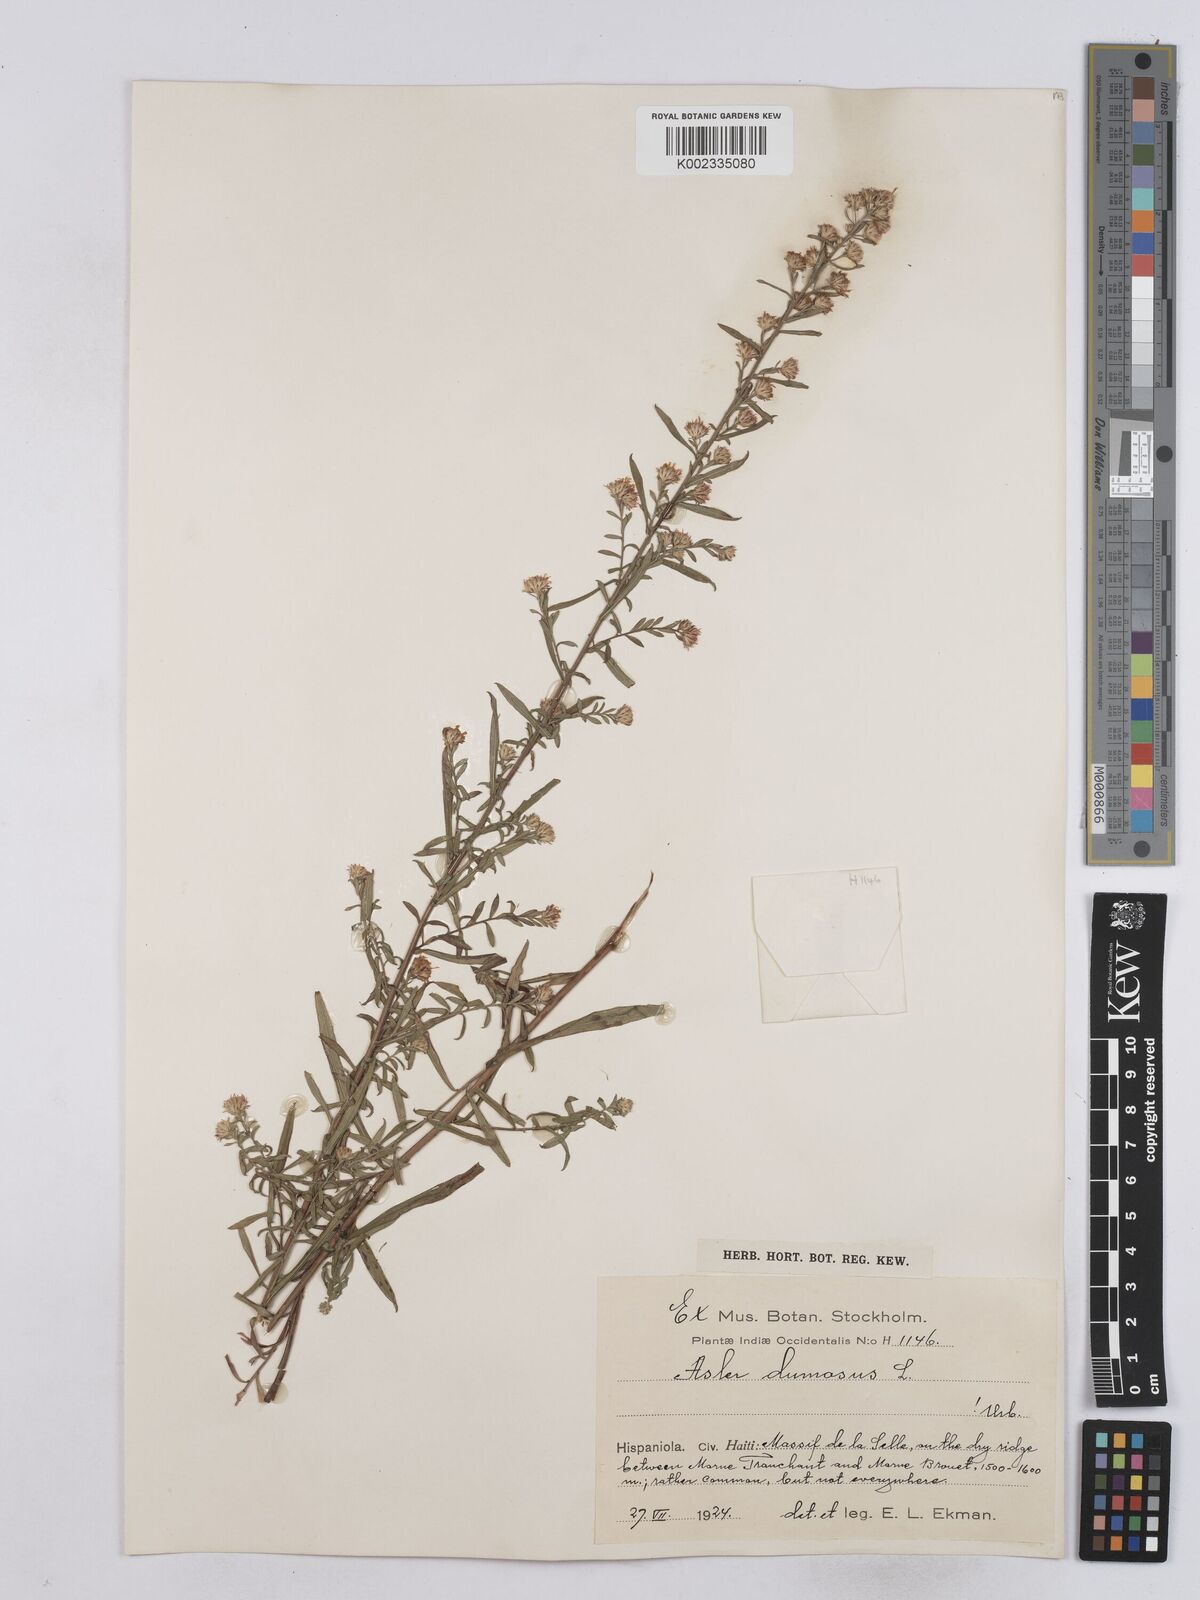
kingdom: Plantae
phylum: Tracheophyta
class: Magnoliopsida
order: Asterales
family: Asteraceae
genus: Symphyotrichum
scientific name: Symphyotrichum dumosum
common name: Bushy aster
